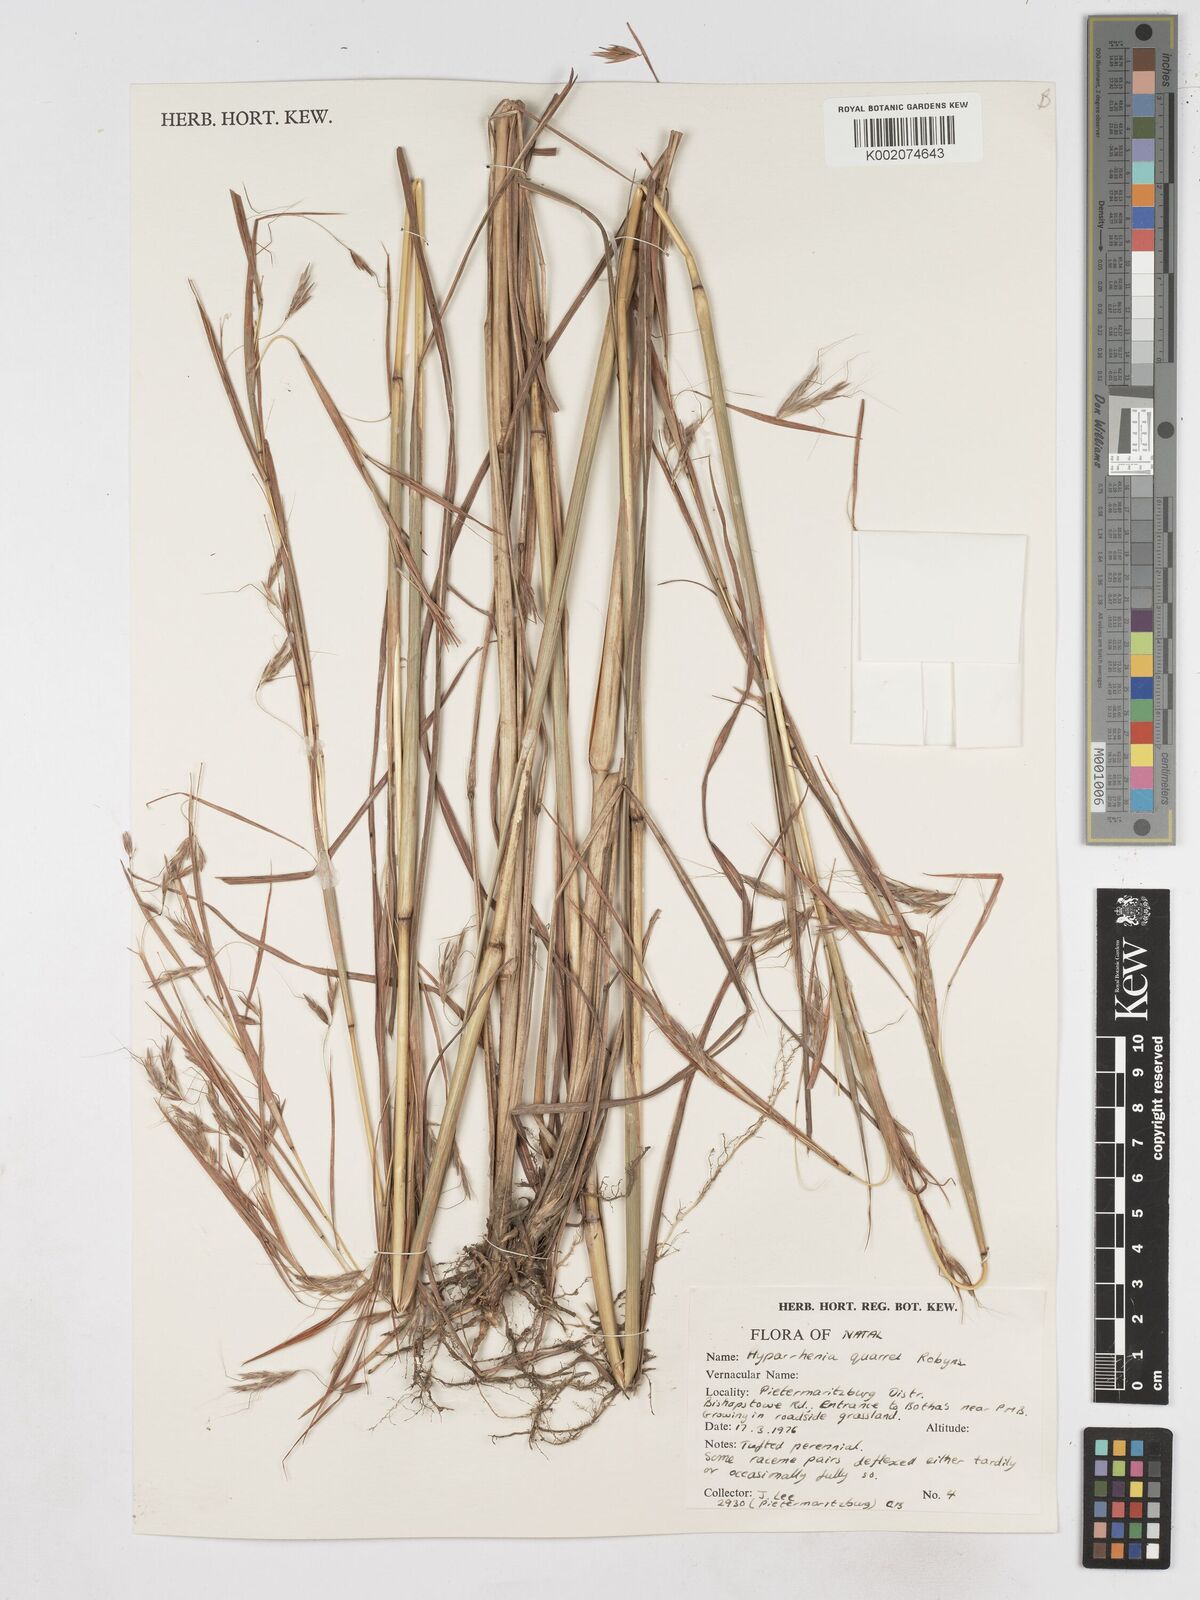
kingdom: Plantae
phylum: Tracheophyta
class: Liliopsida
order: Poales
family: Poaceae
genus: Hyparrhenia
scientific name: Hyparrhenia quarrei
